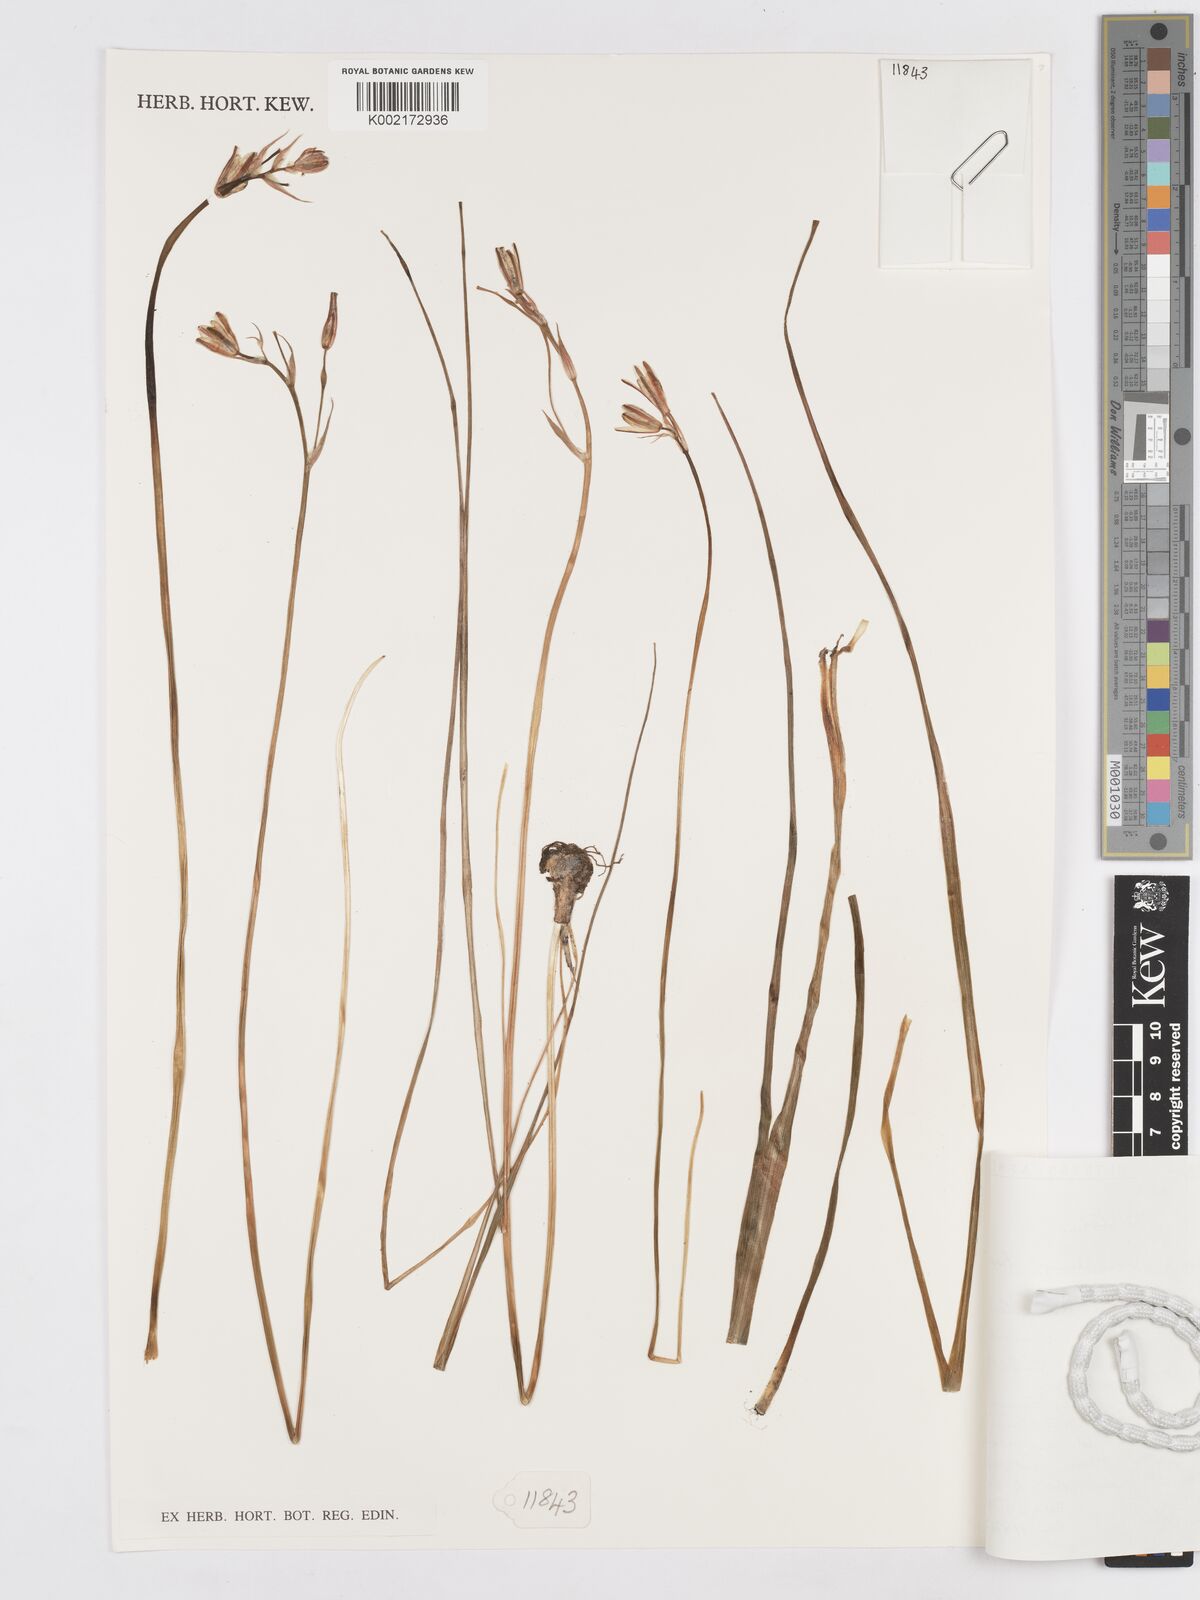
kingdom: Plantae
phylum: Tracheophyta
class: Liliopsida
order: Asparagales
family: Asparagaceae
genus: Albuca
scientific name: Albuca setosa
